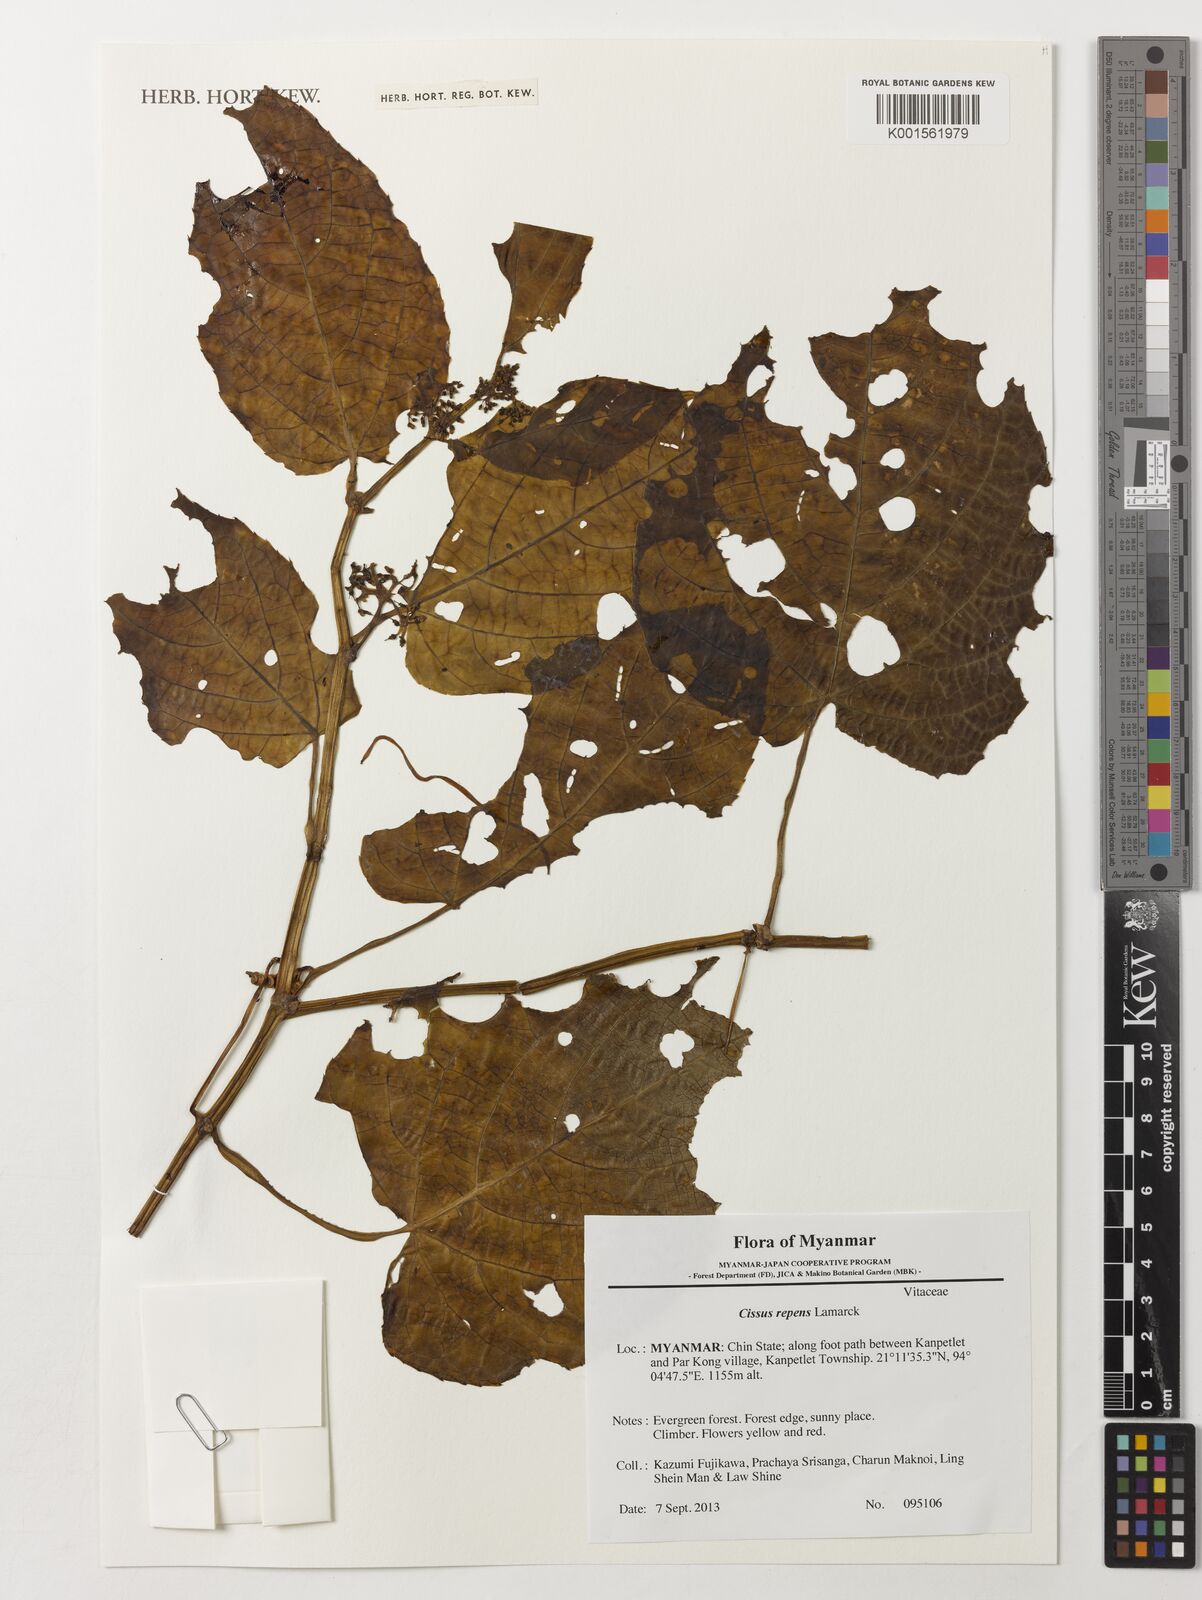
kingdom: Plantae
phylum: Tracheophyta
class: Magnoliopsida
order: Vitales
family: Vitaceae
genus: Cissus
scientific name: Cissus repens
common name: Cissus
